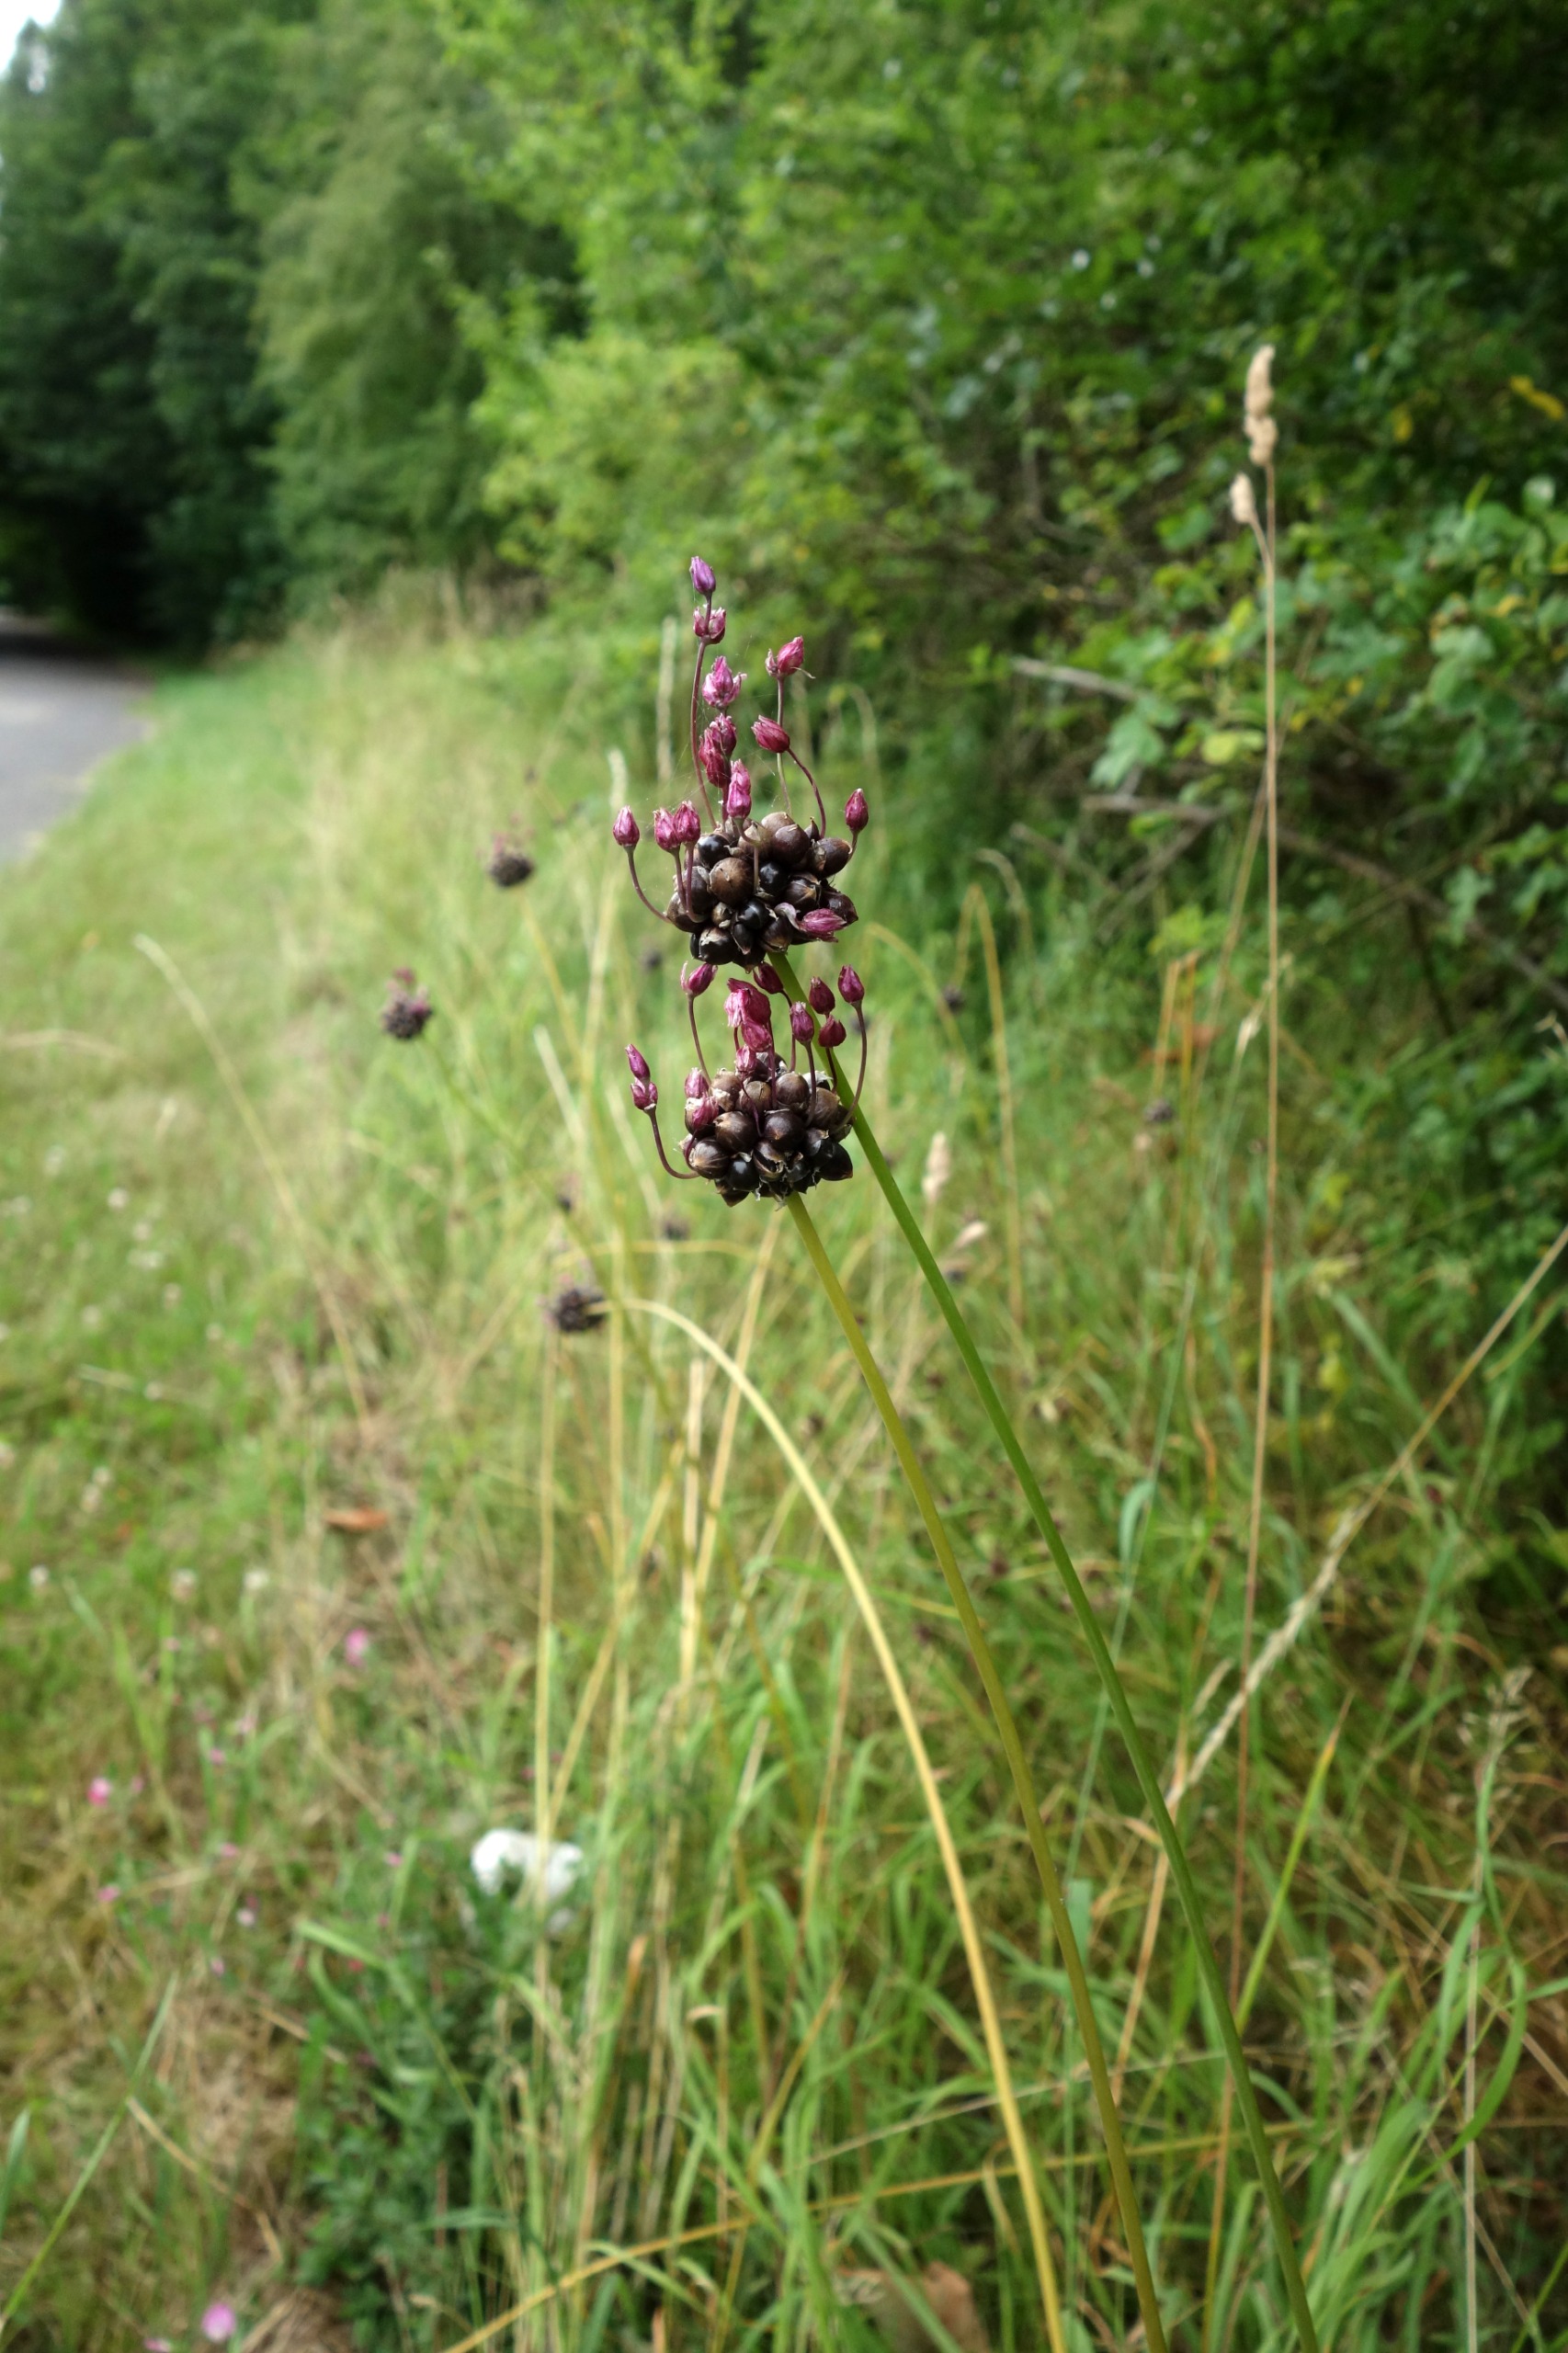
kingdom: Plantae
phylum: Tracheophyta
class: Liliopsida
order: Asparagales
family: Amaryllidaceae
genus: Allium
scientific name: Allium oleraceum
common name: Vild løg
